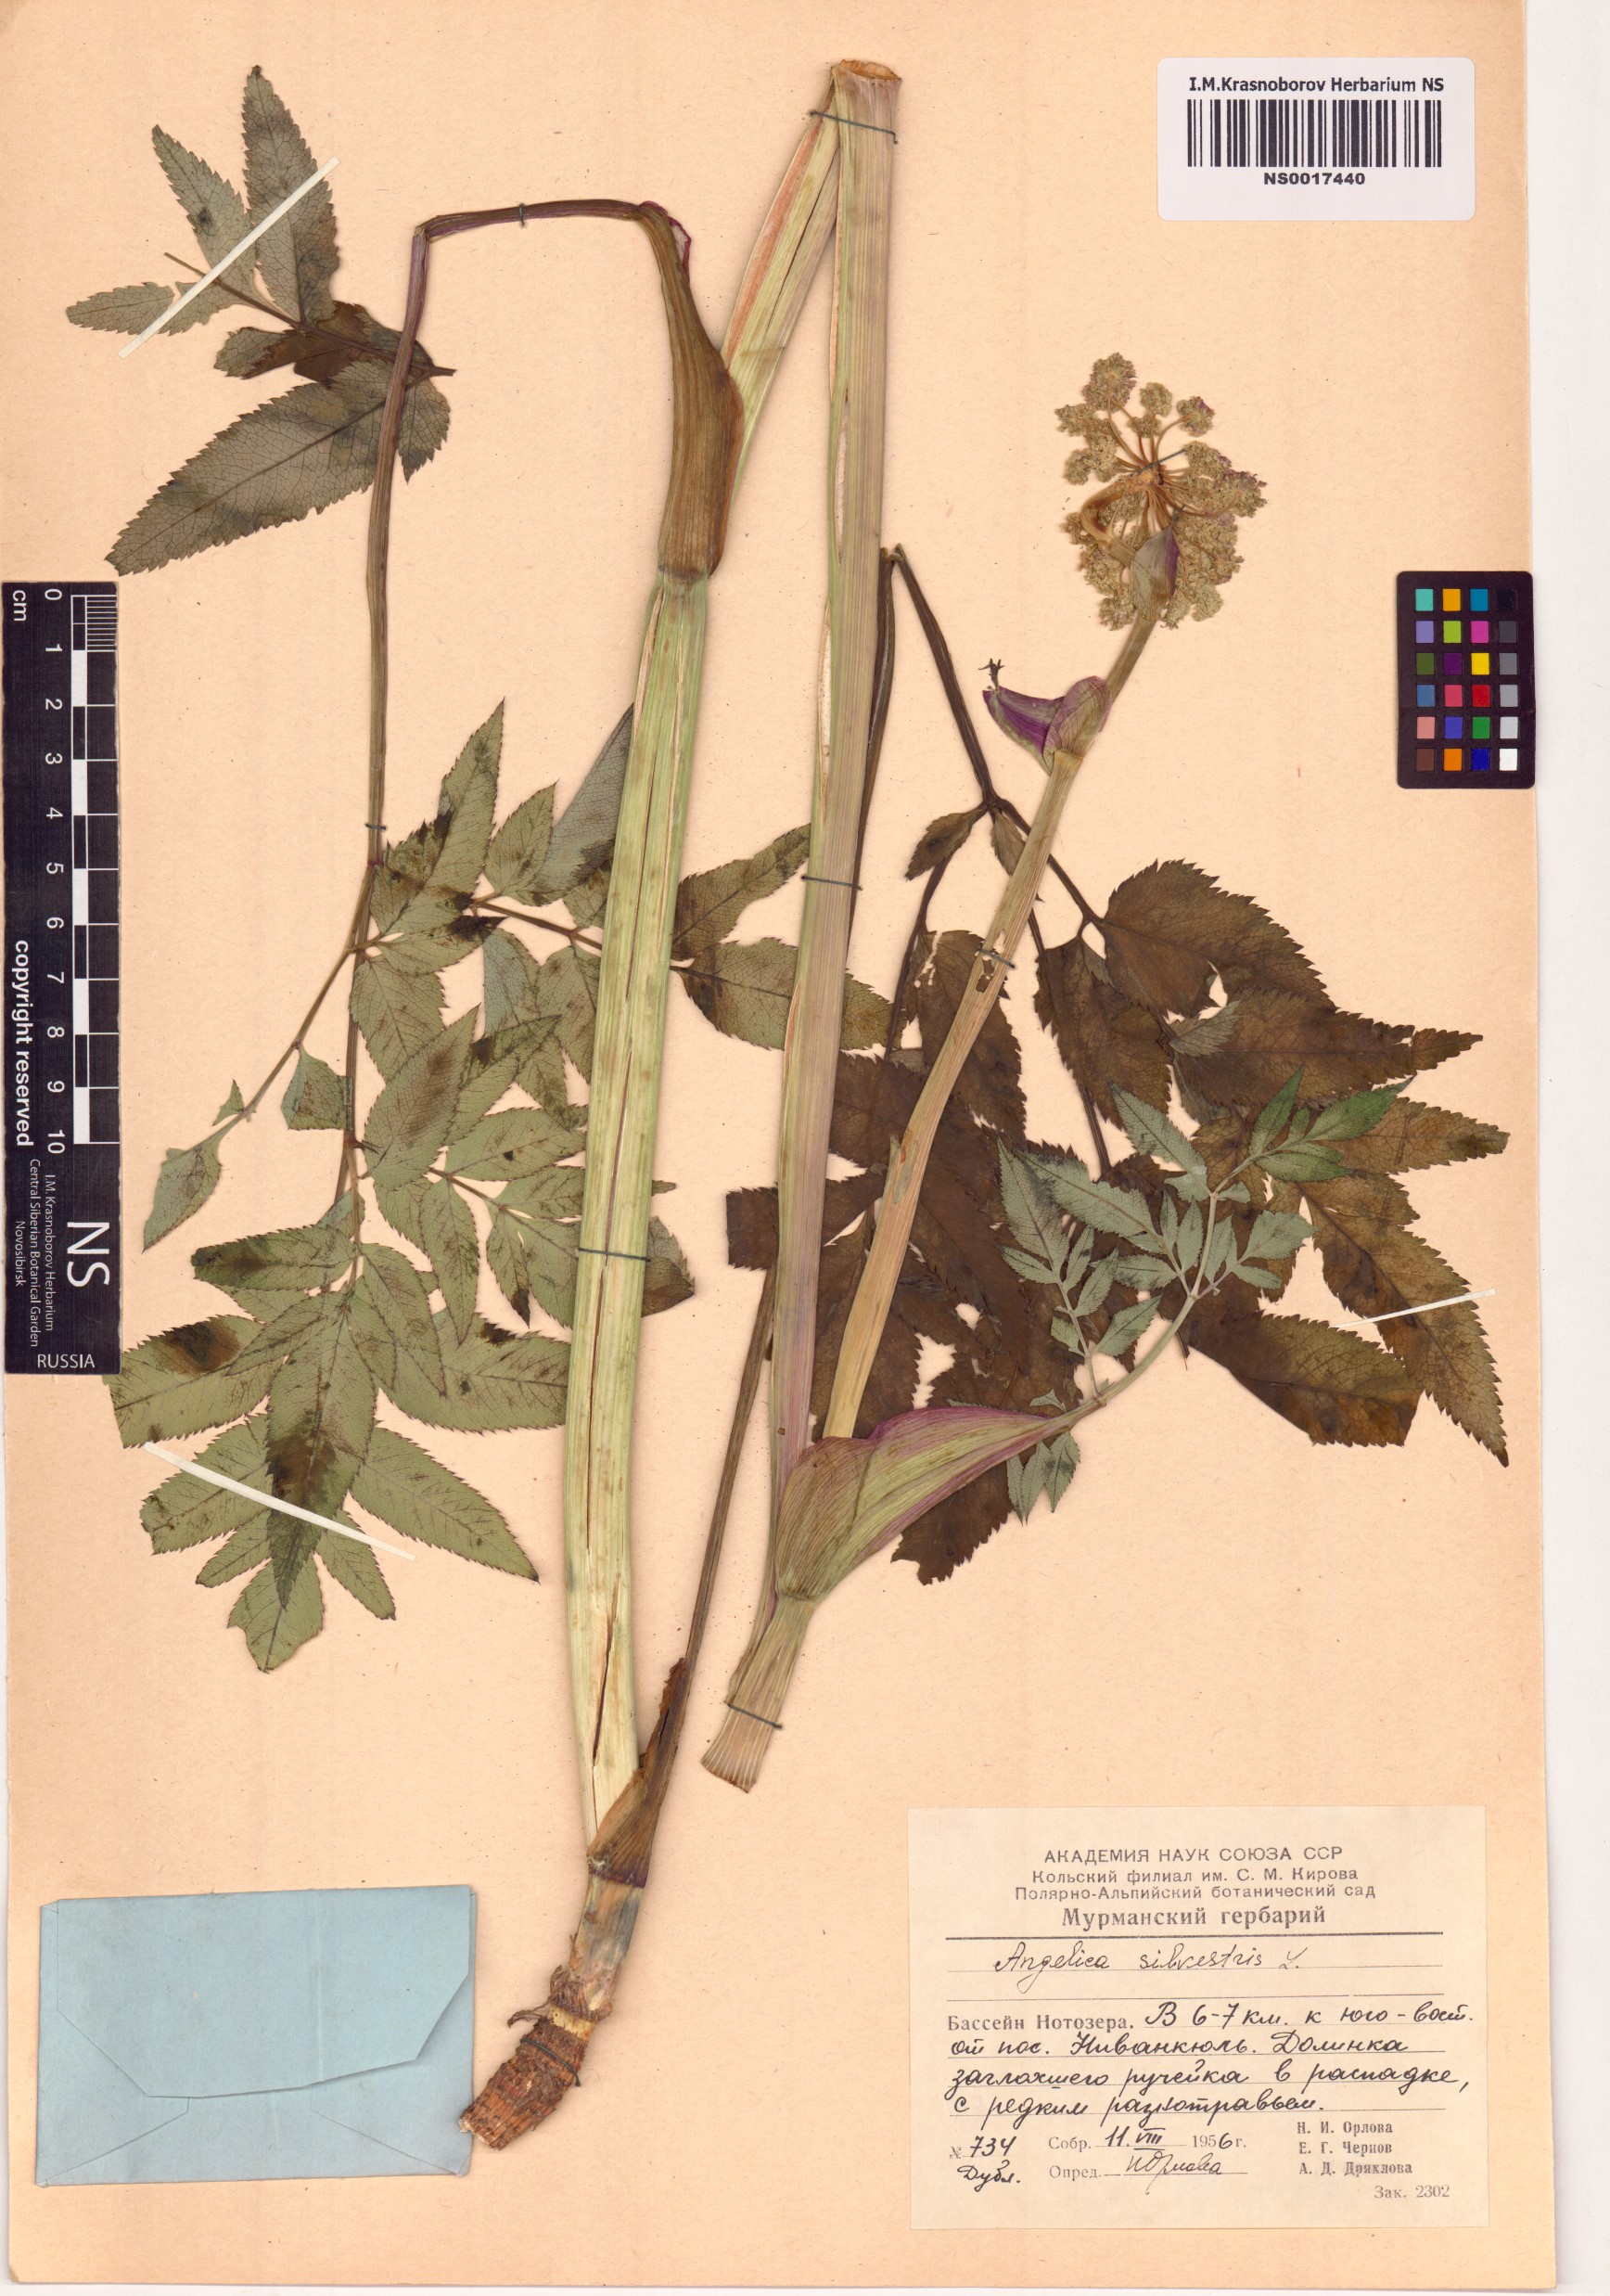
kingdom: Plantae
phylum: Tracheophyta
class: Magnoliopsida
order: Apiales
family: Apiaceae
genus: Angelica
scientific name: Angelica sylvestris
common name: Wild angelica
